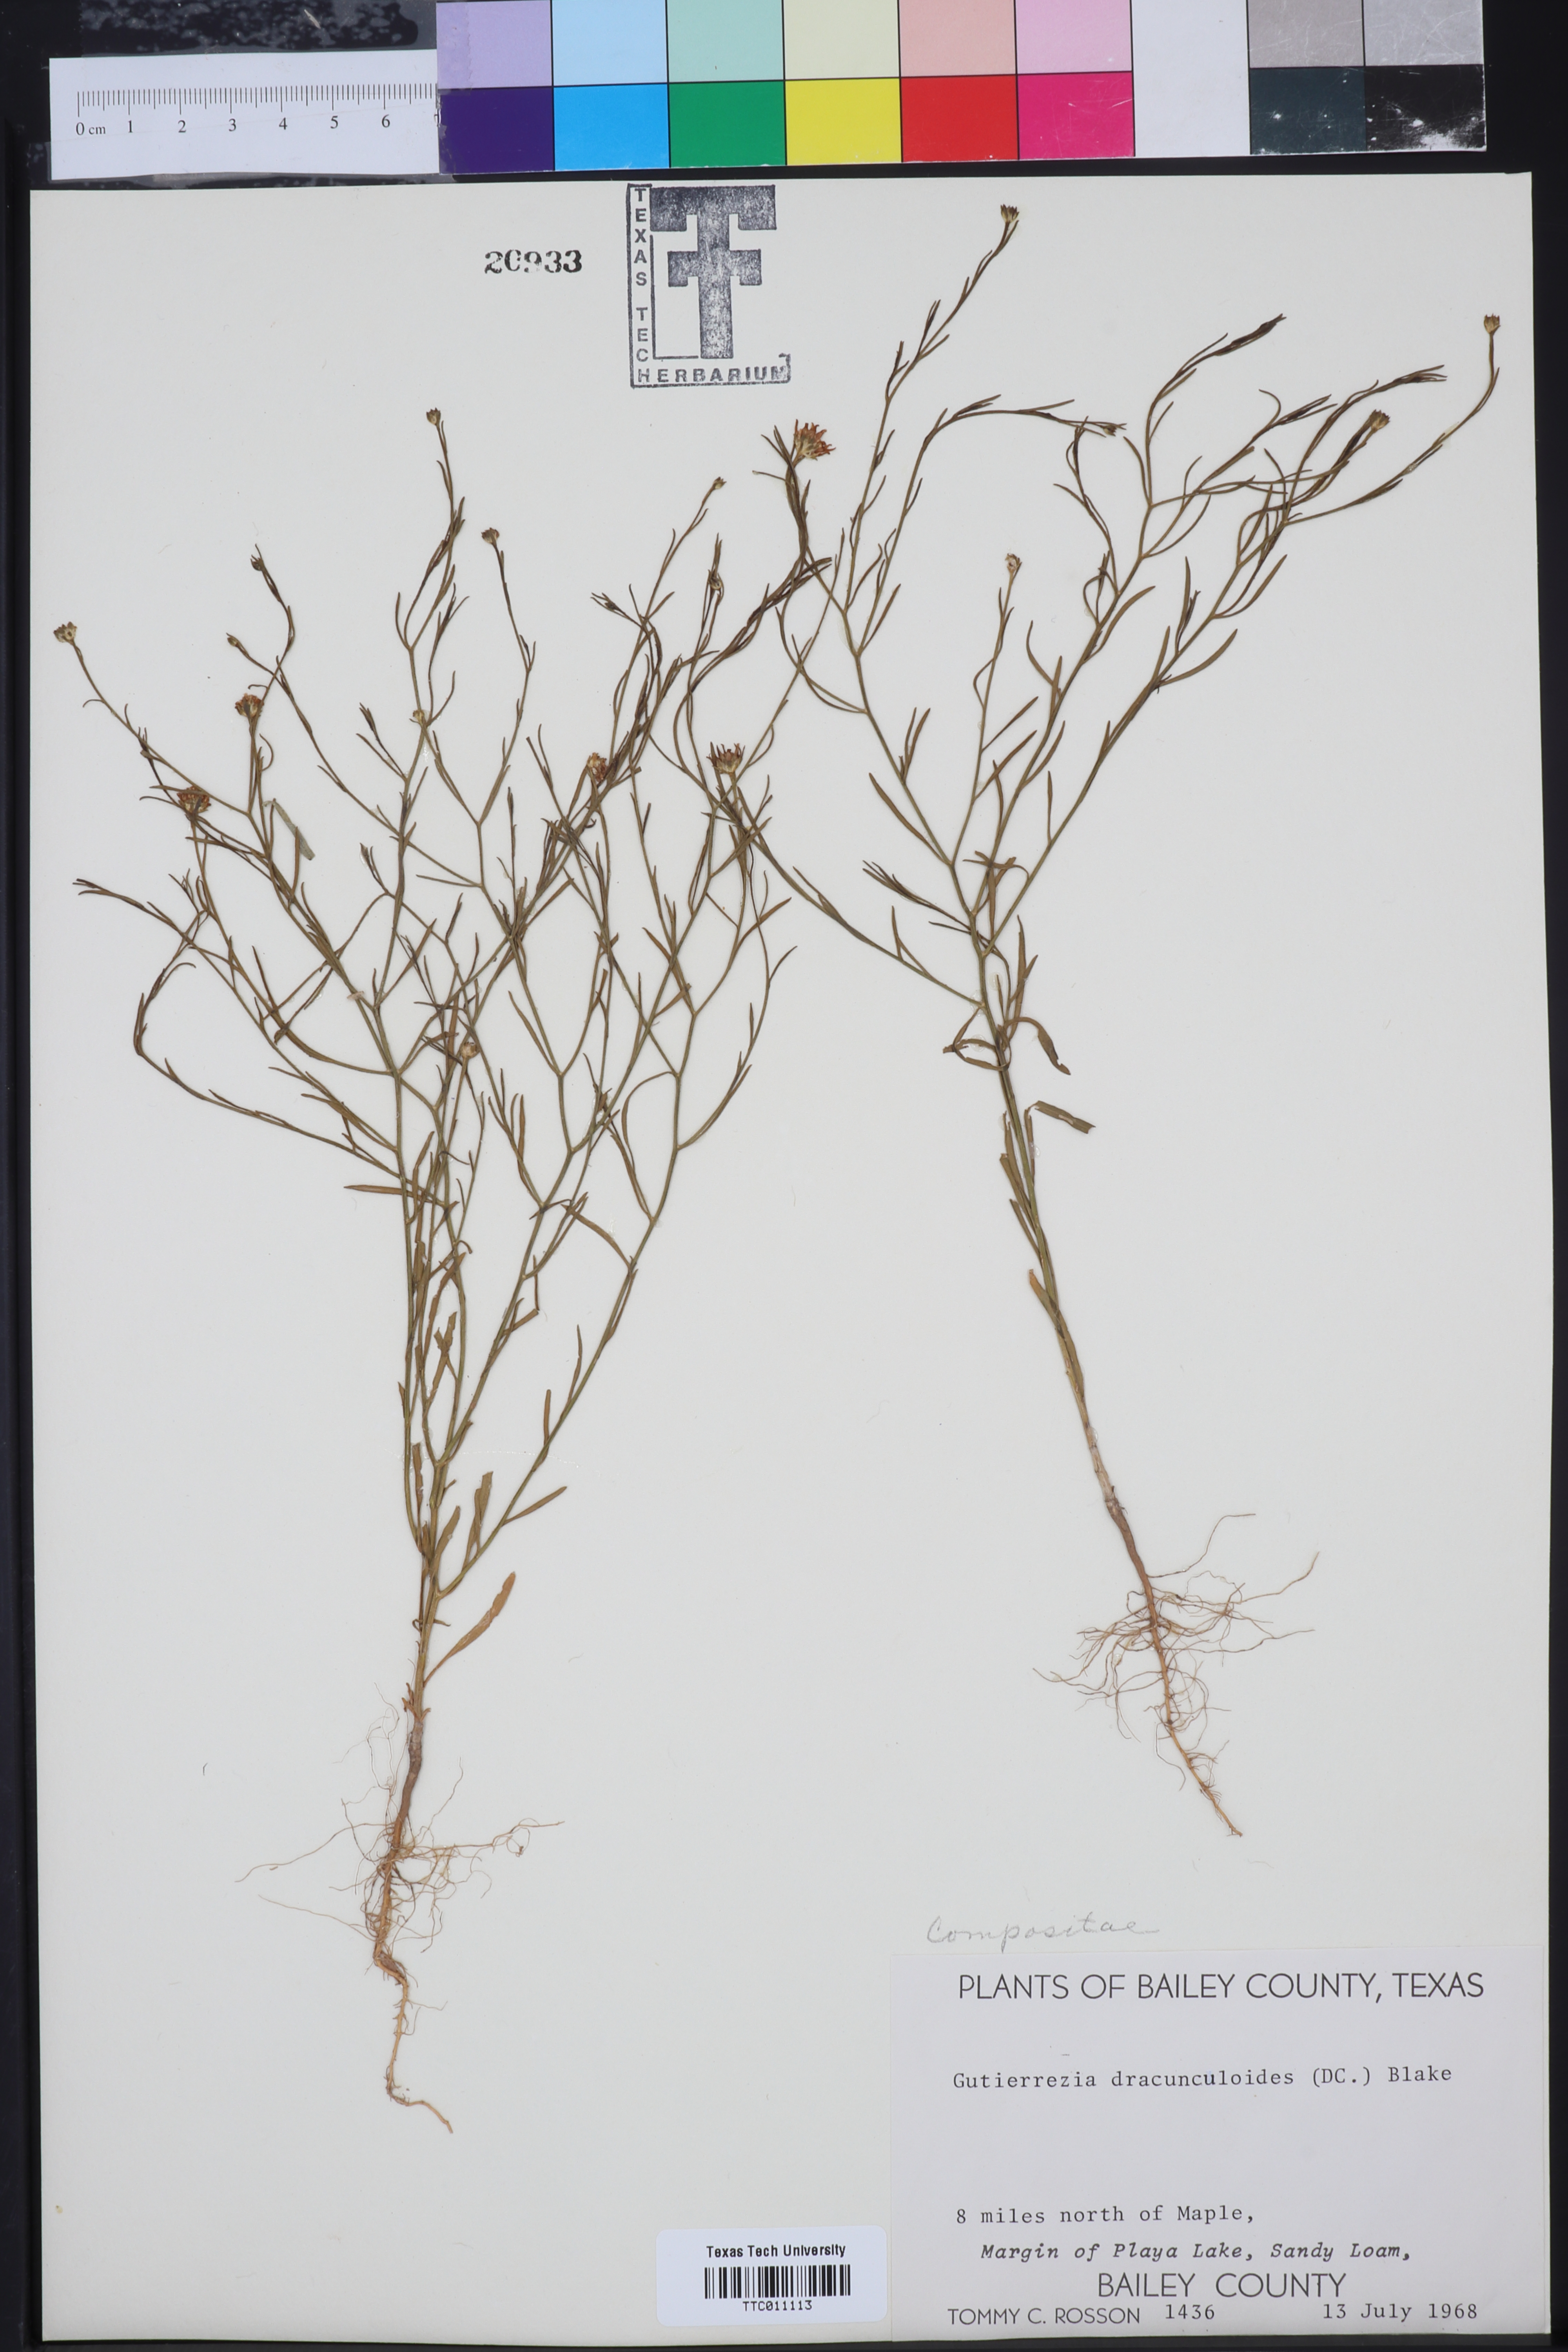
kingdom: Plantae
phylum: Tracheophyta
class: Magnoliopsida
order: Asterales
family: Asteraceae
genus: Amphiachyris
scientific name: Amphiachyris dracunculoides
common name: Broomweed
